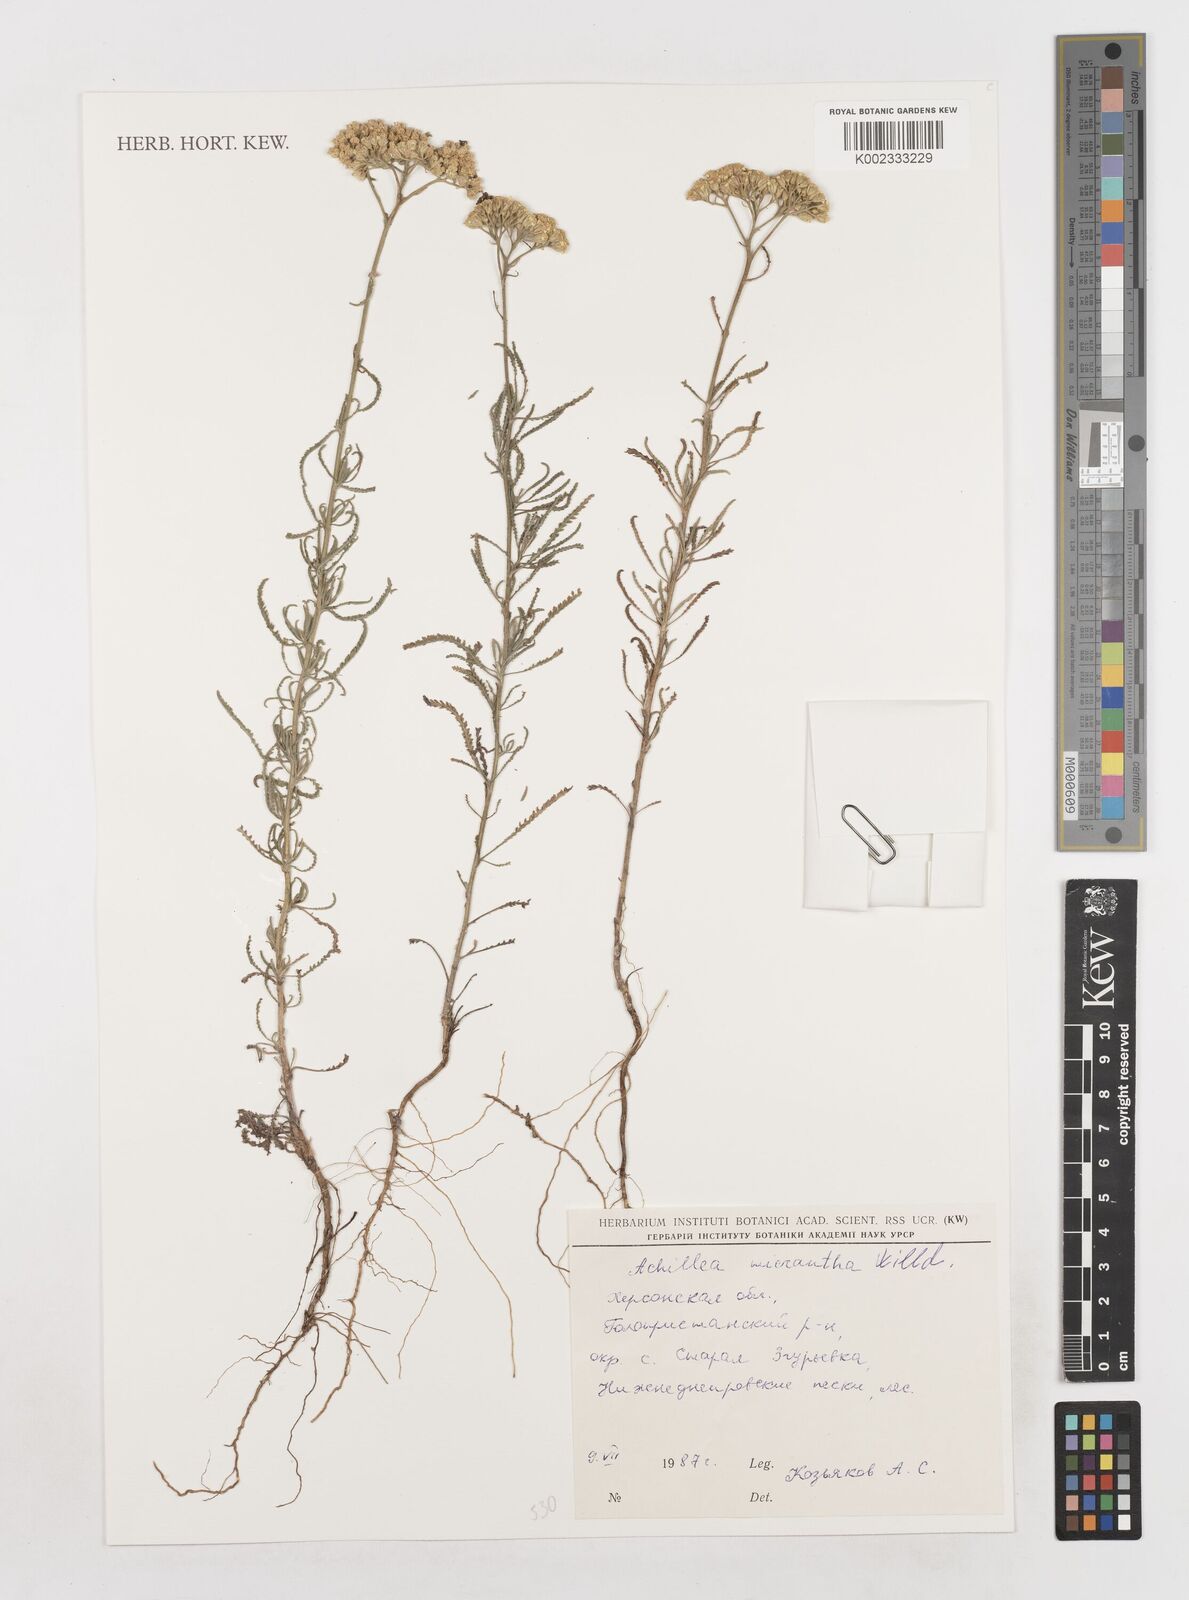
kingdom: Plantae
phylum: Tracheophyta
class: Magnoliopsida
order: Asterales
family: Asteraceae
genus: Achillea
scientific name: Achillea micrantha
